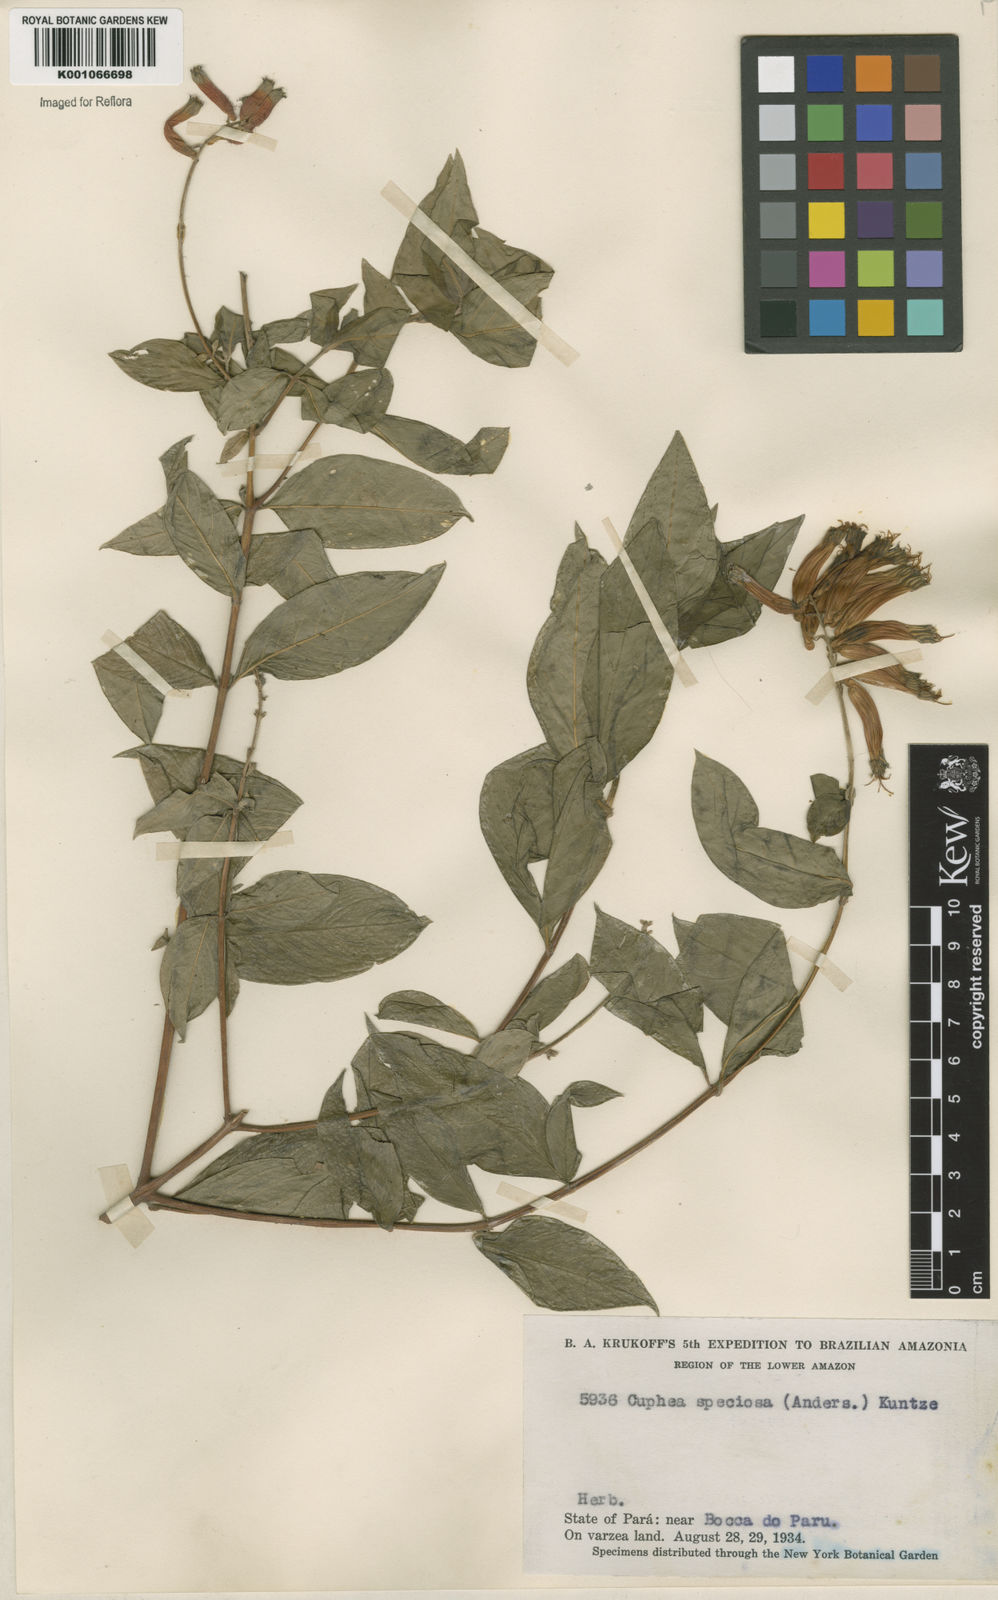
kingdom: Plantae
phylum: Tracheophyta
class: Magnoliopsida
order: Myrtales
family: Lythraceae
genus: Cuphea
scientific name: Cuphea melvilla
